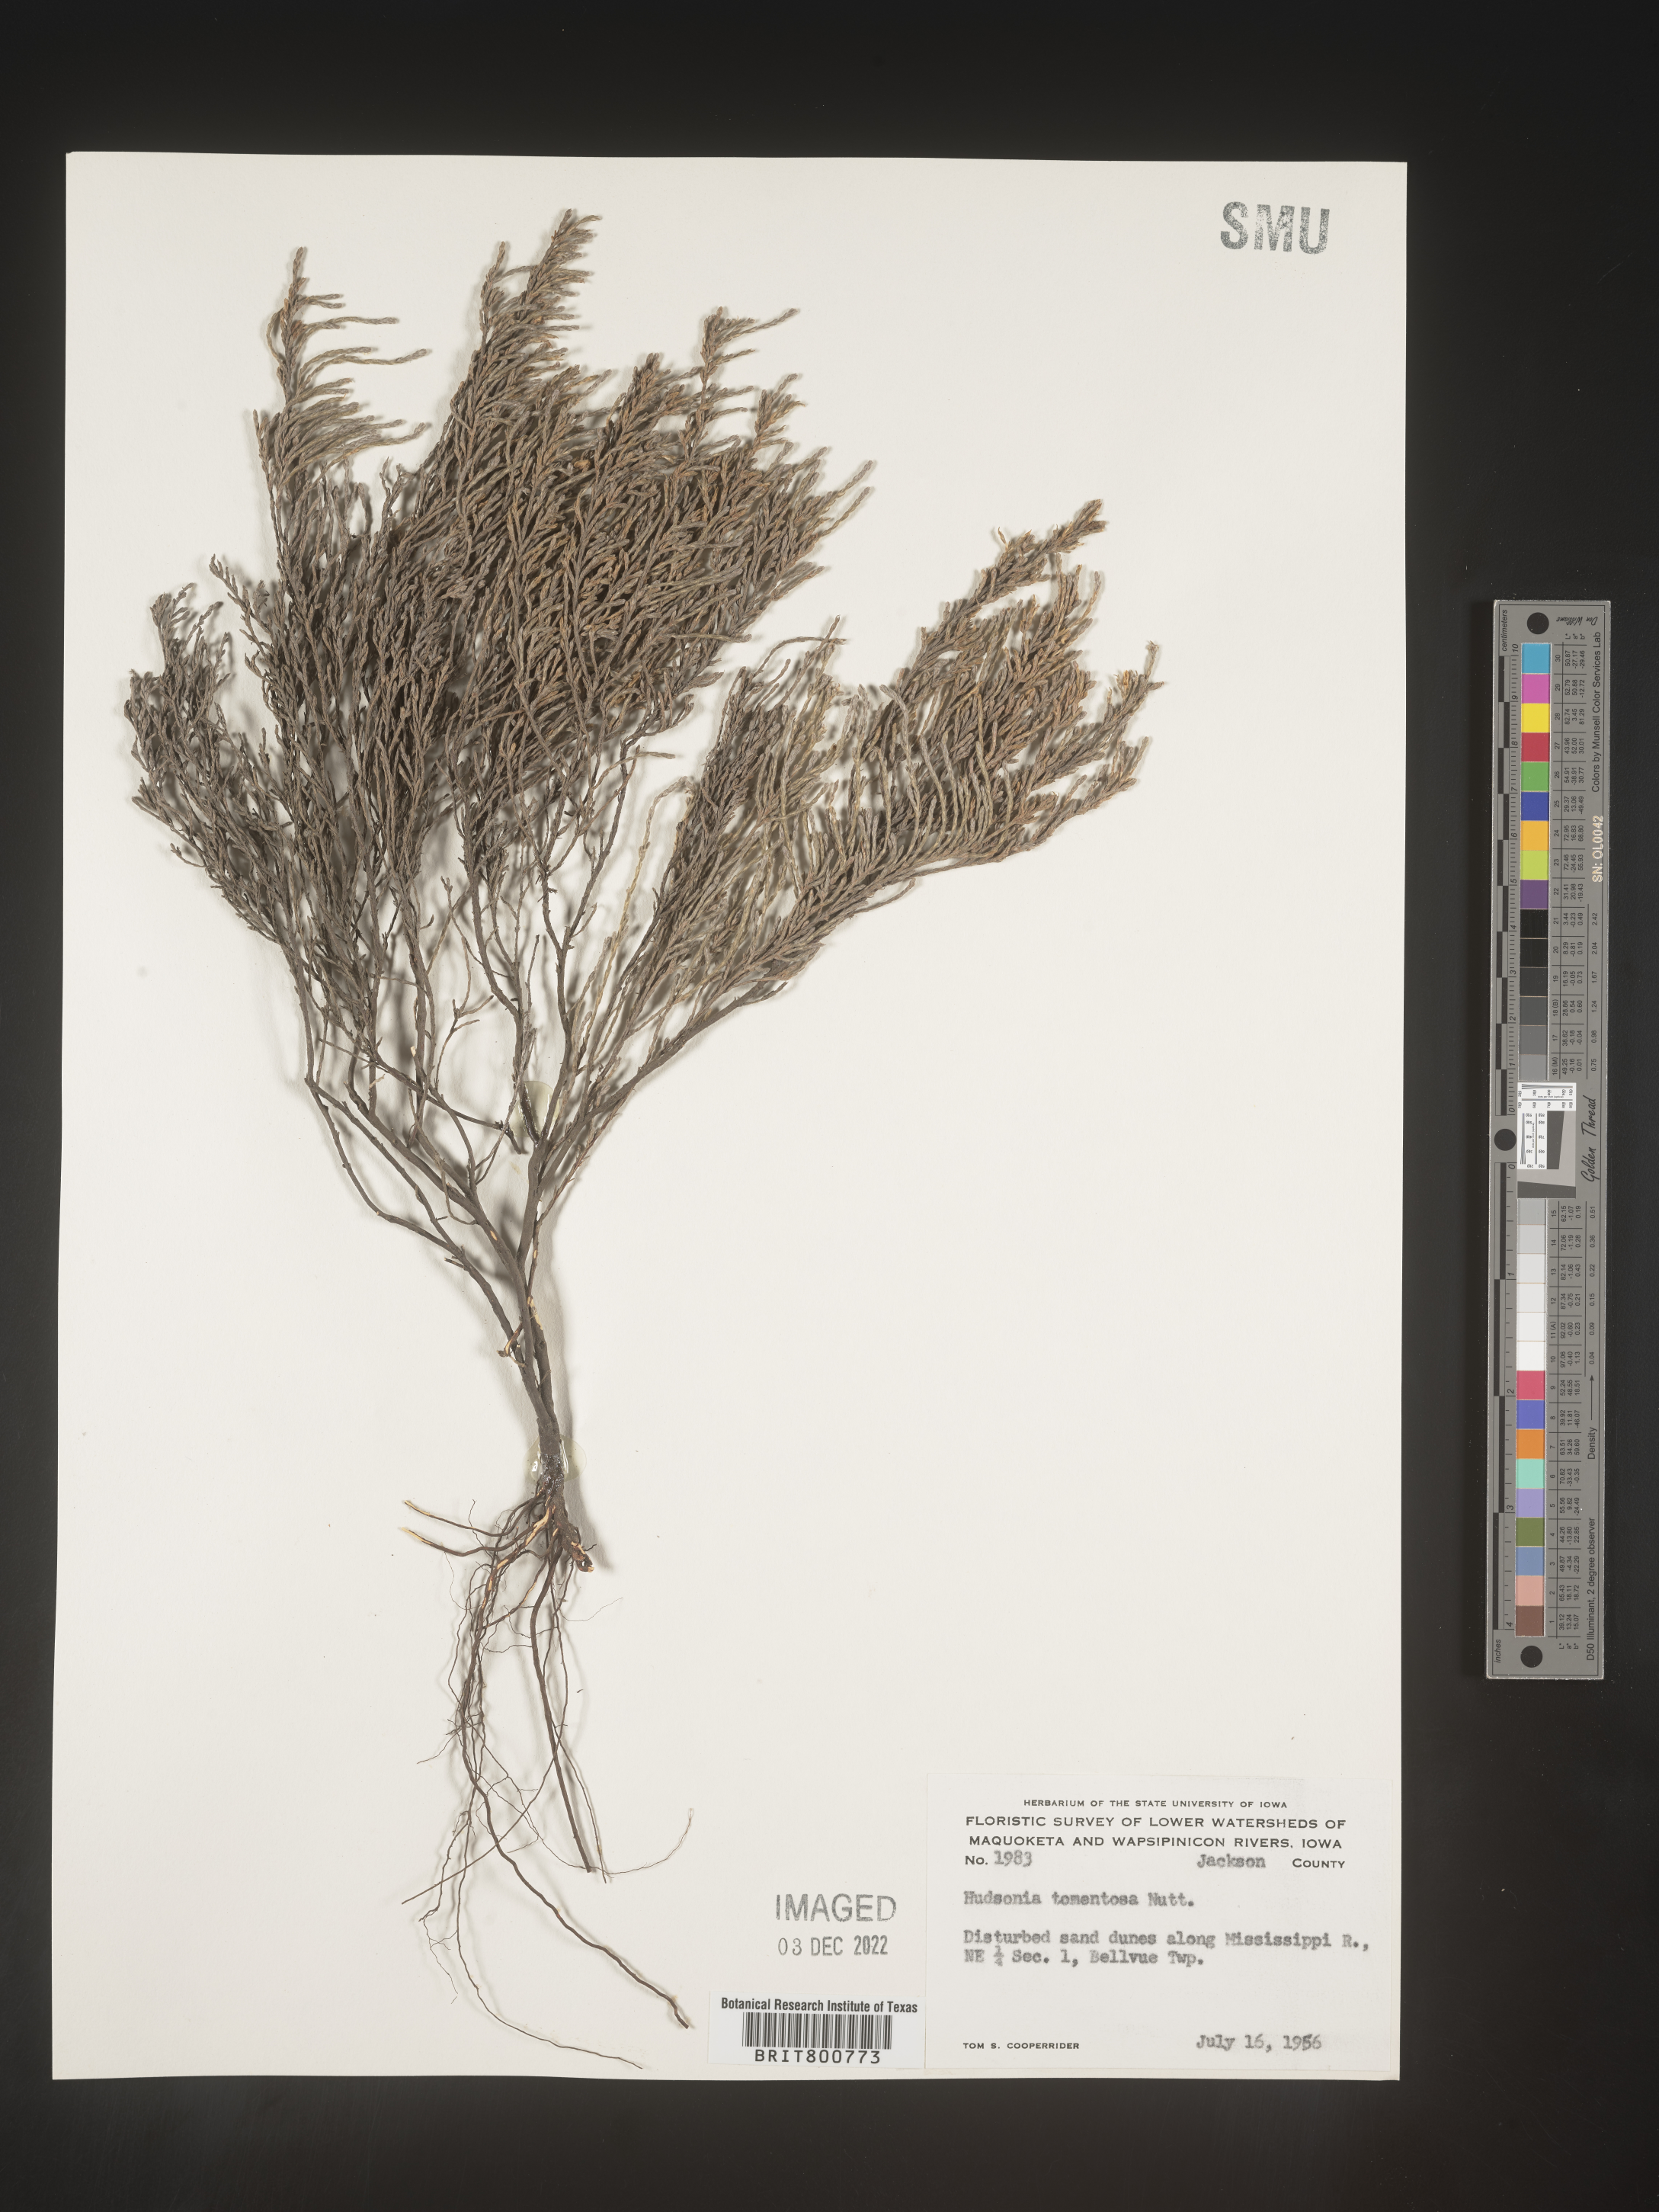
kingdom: Plantae
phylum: Tracheophyta
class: Magnoliopsida
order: Malvales
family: Cistaceae
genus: Hudsonia
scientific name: Hudsonia tomentosa
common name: Beach-heath
